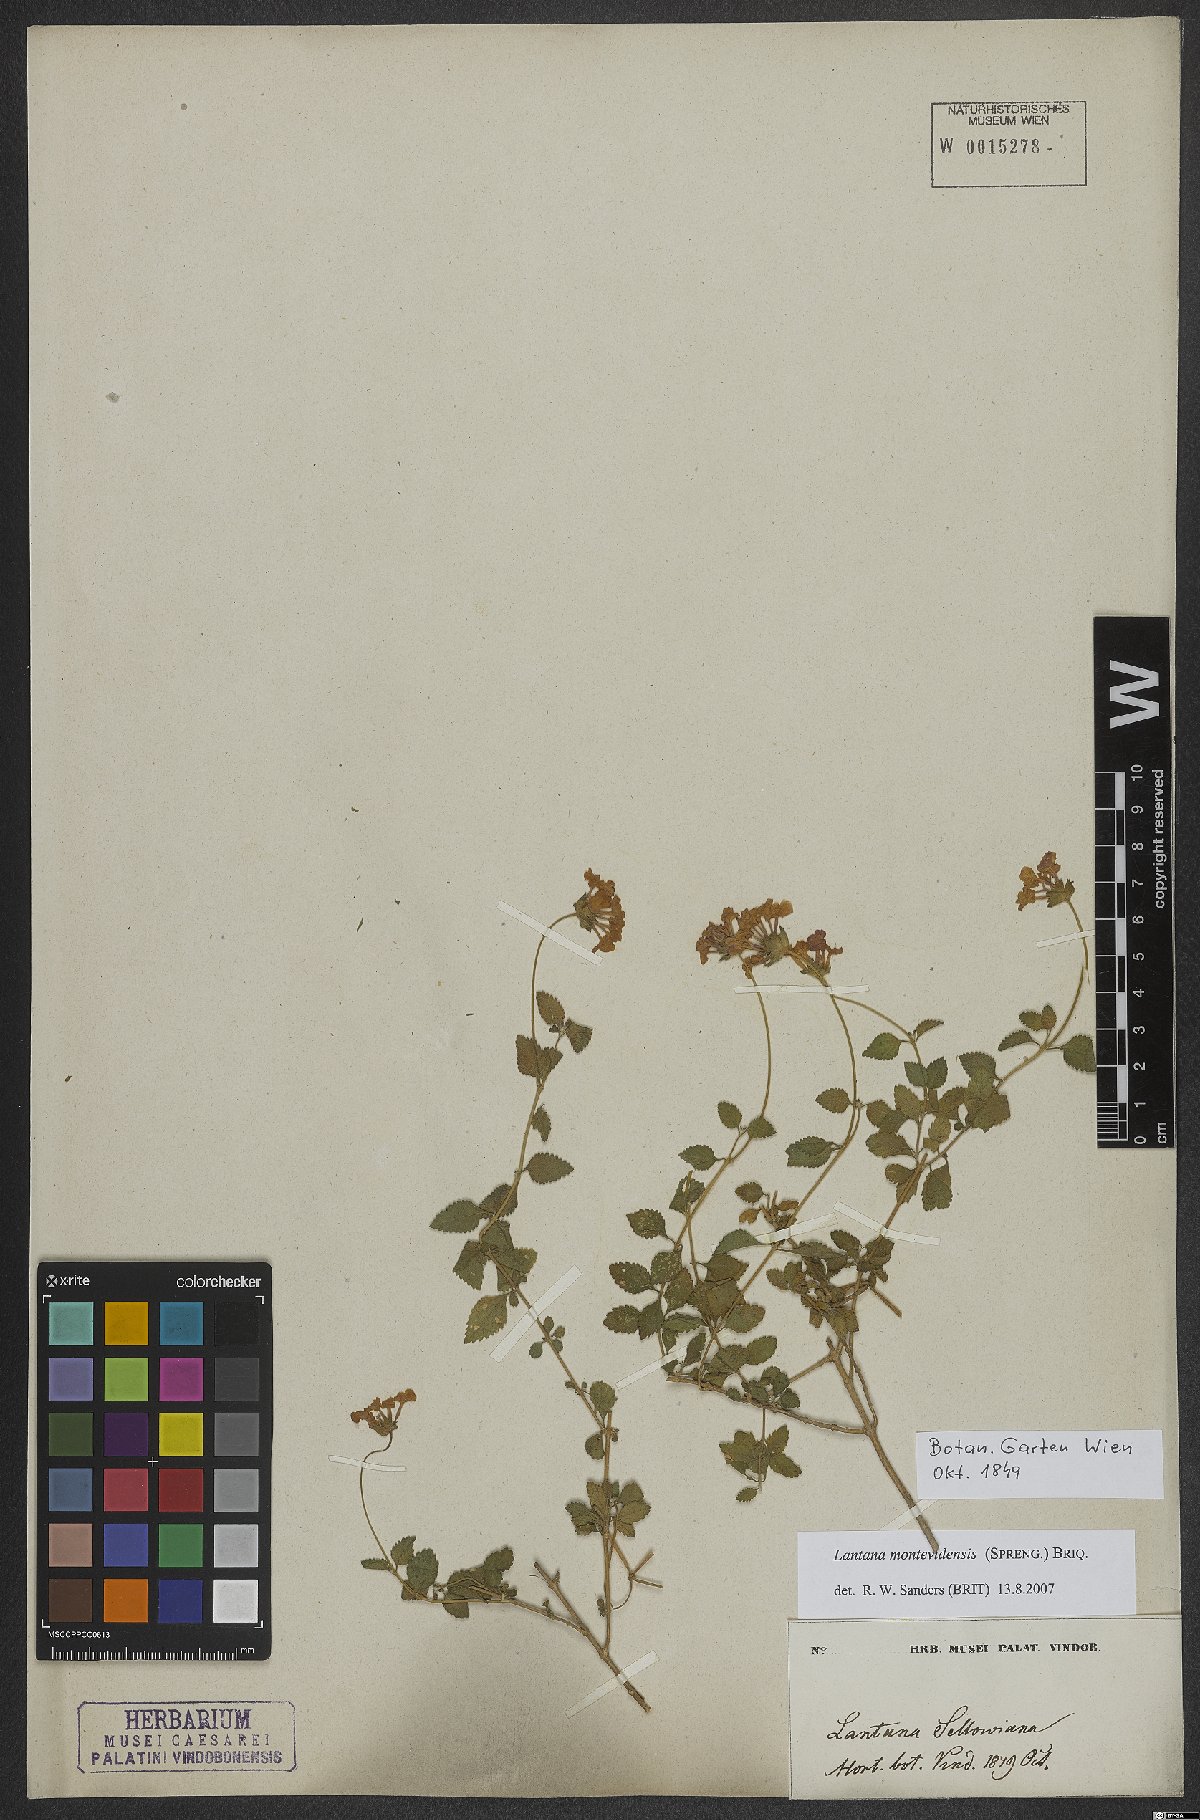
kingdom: Plantae
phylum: Tracheophyta
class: Magnoliopsida
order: Lamiales
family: Verbenaceae
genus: Lantana
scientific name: Lantana montevidensis
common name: Trailing shrubverbena
